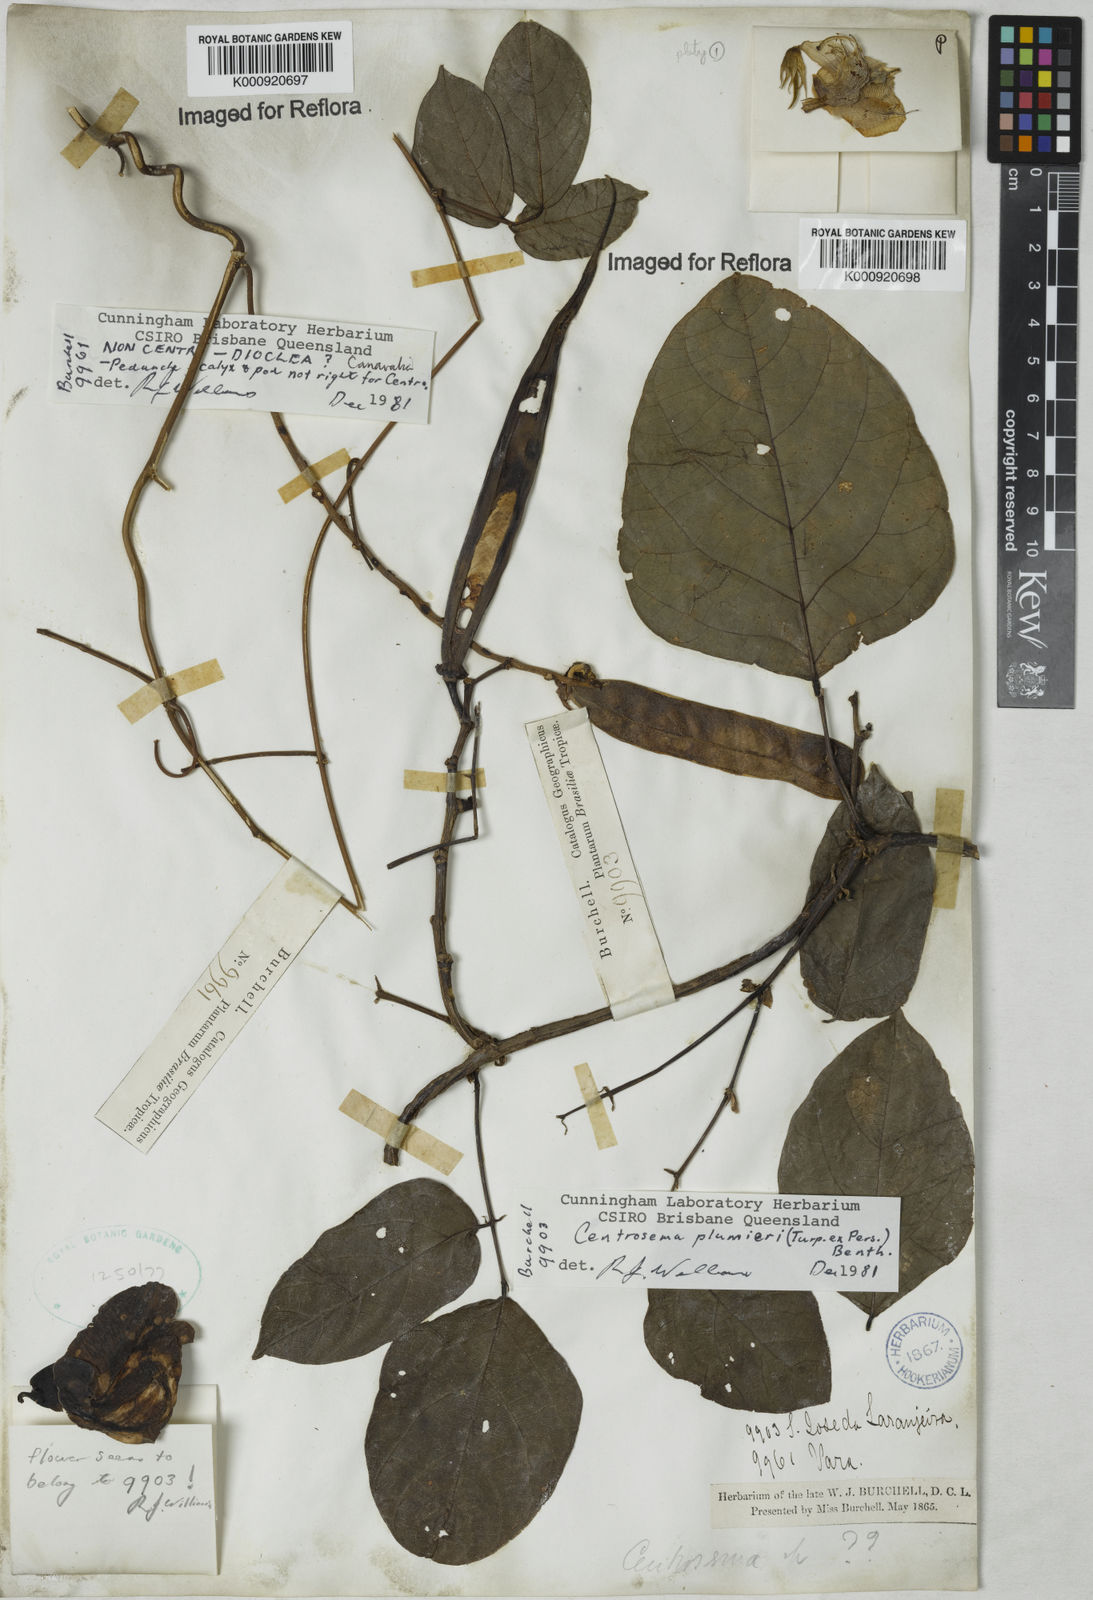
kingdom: Plantae
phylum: Tracheophyta
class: Magnoliopsida
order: Fabales
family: Fabaceae
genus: Centrosema
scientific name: Centrosema plumieri
